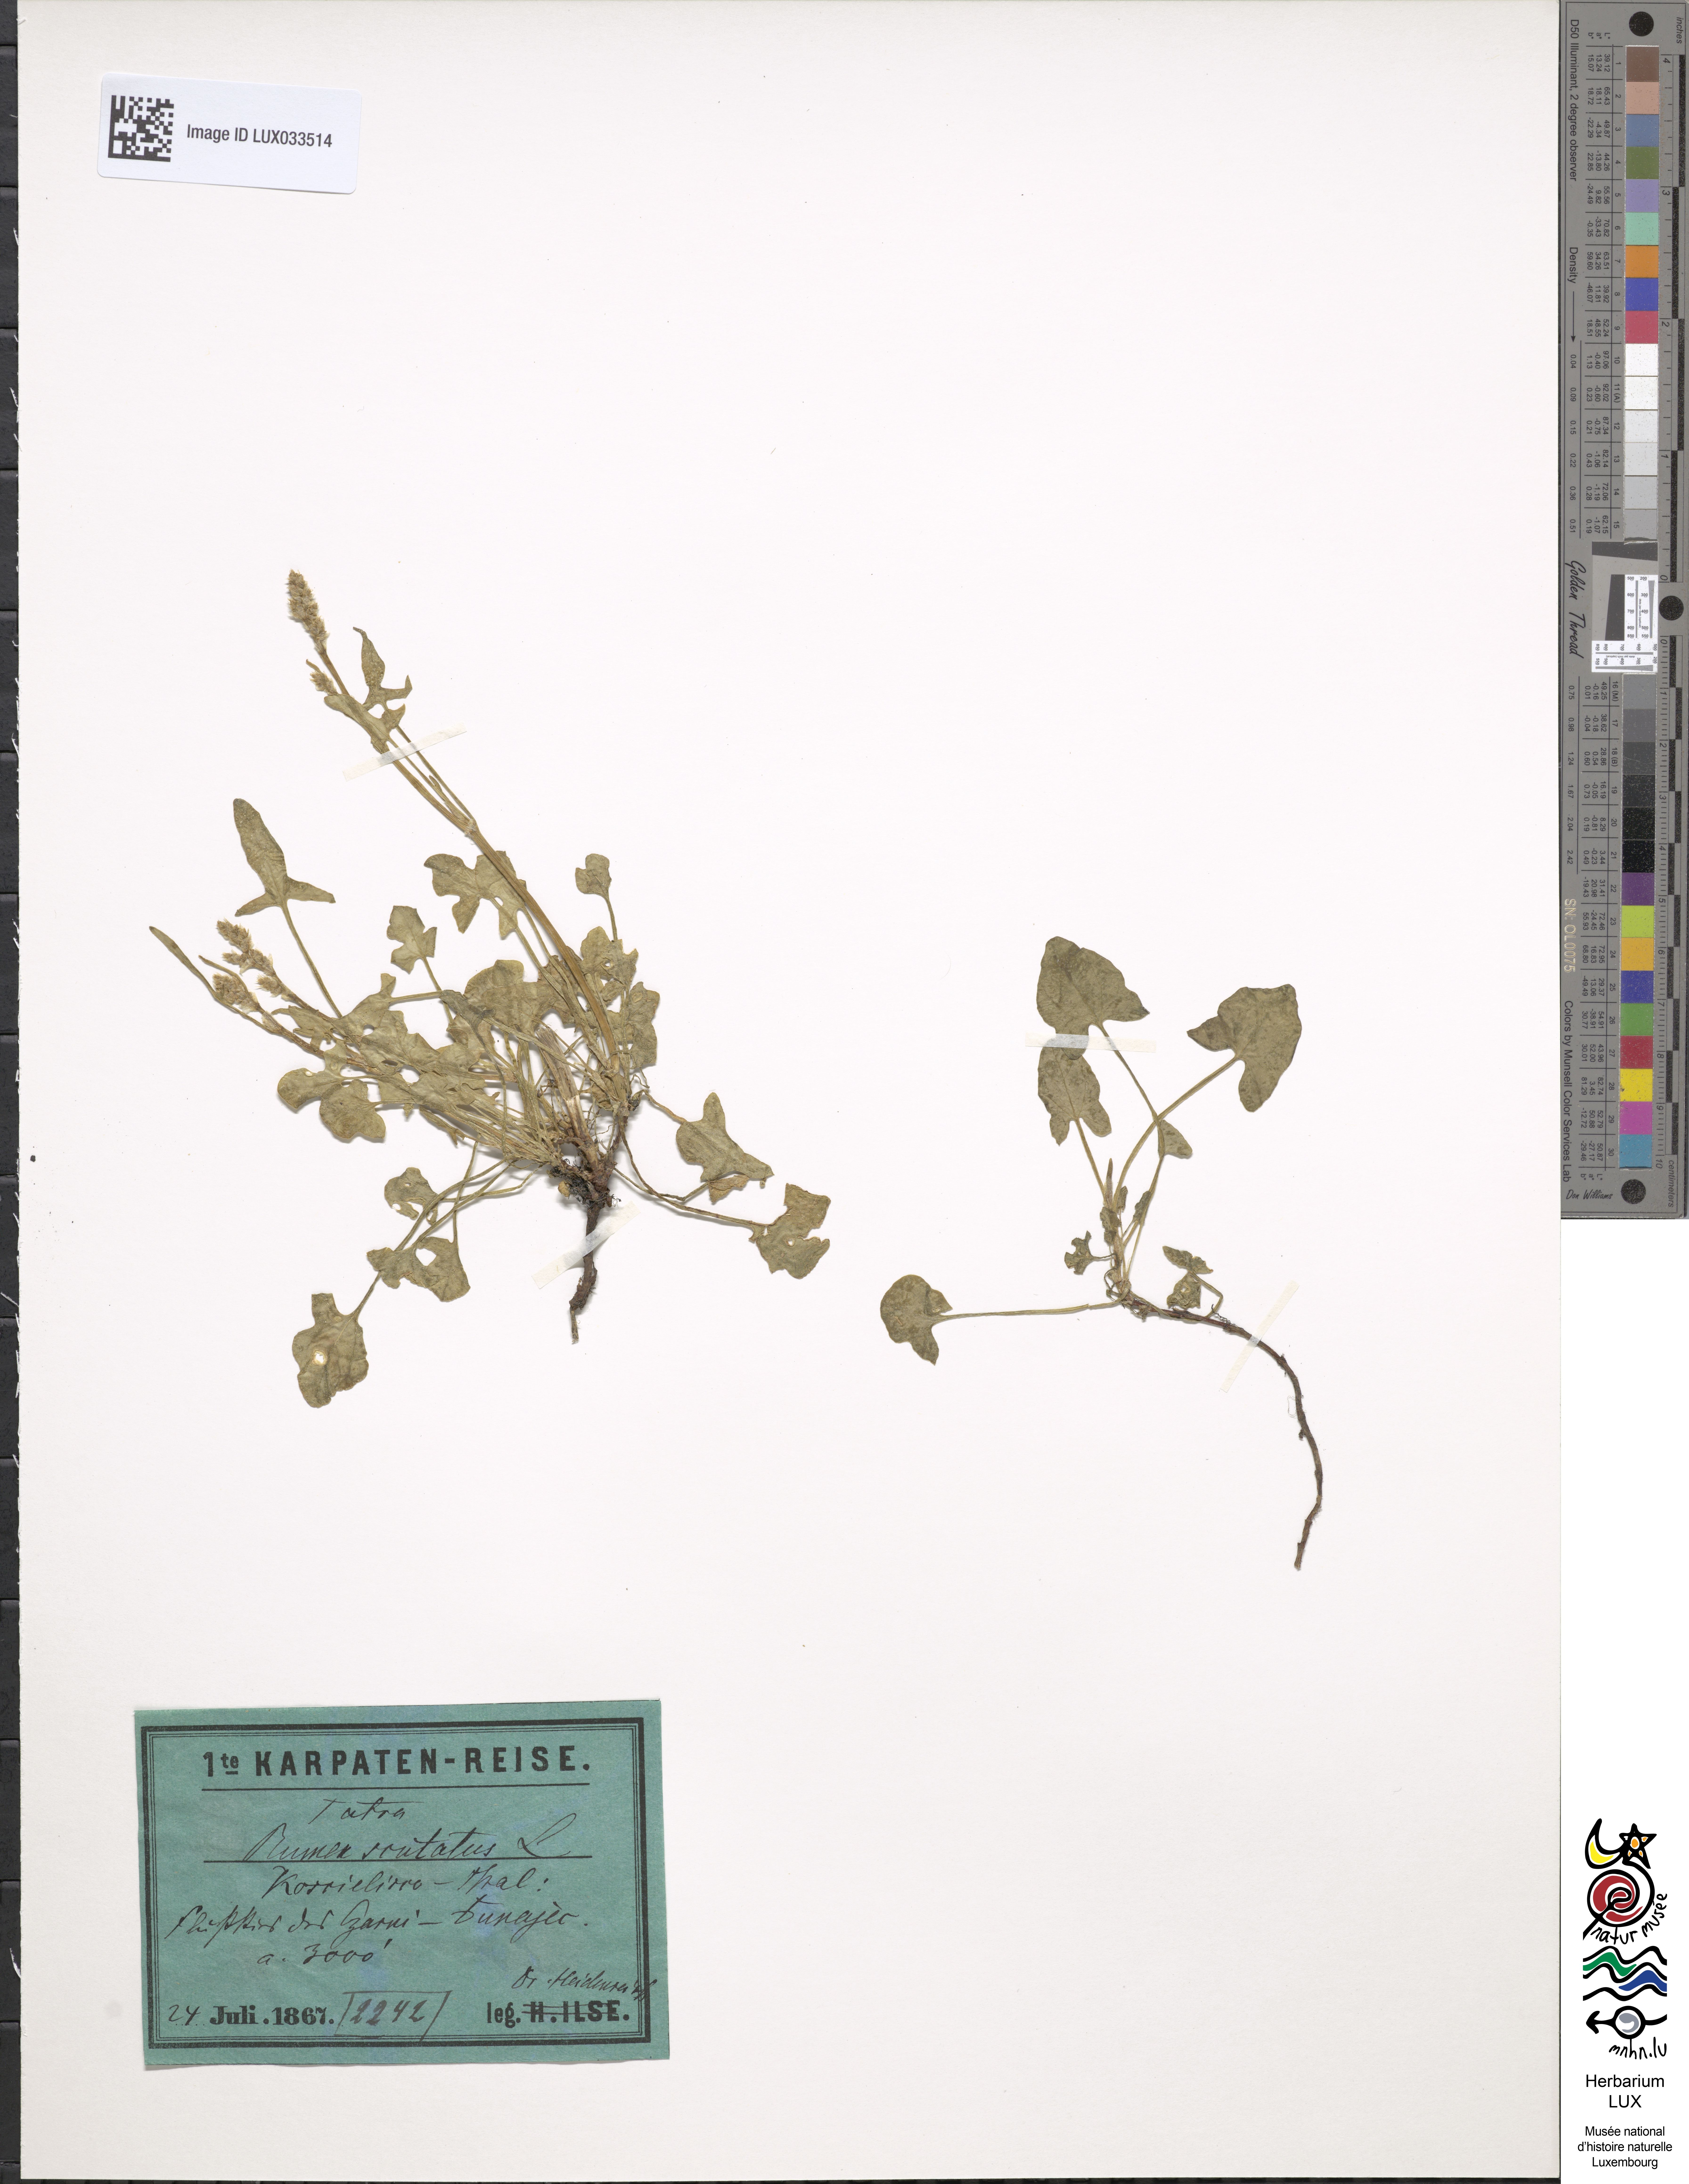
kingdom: Plantae
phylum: Tracheophyta
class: Magnoliopsida
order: Caryophyllales
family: Polygonaceae
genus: Rumex
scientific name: Rumex scutatus
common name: French sorrel
